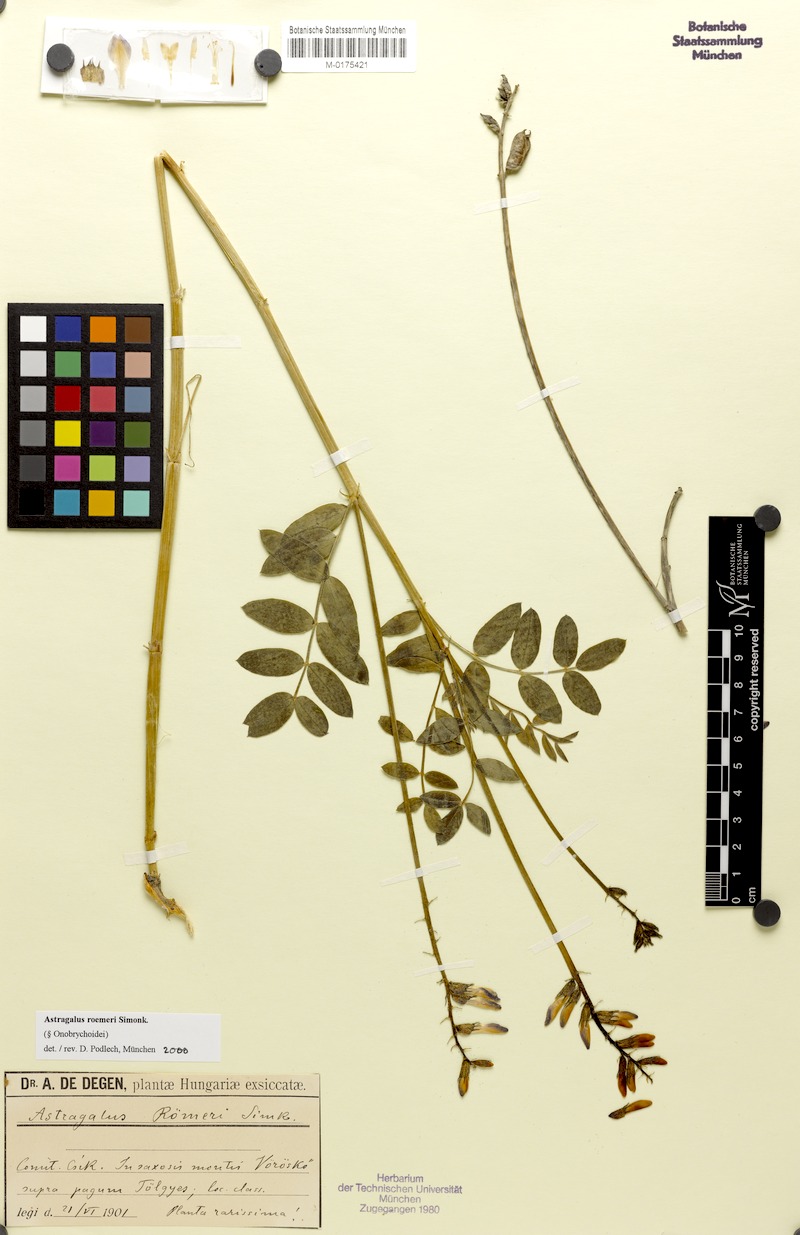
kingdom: Plantae
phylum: Tracheophyta
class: Magnoliopsida
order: Fabales
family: Fabaceae
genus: Astragalus
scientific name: Astragalus roemeri
